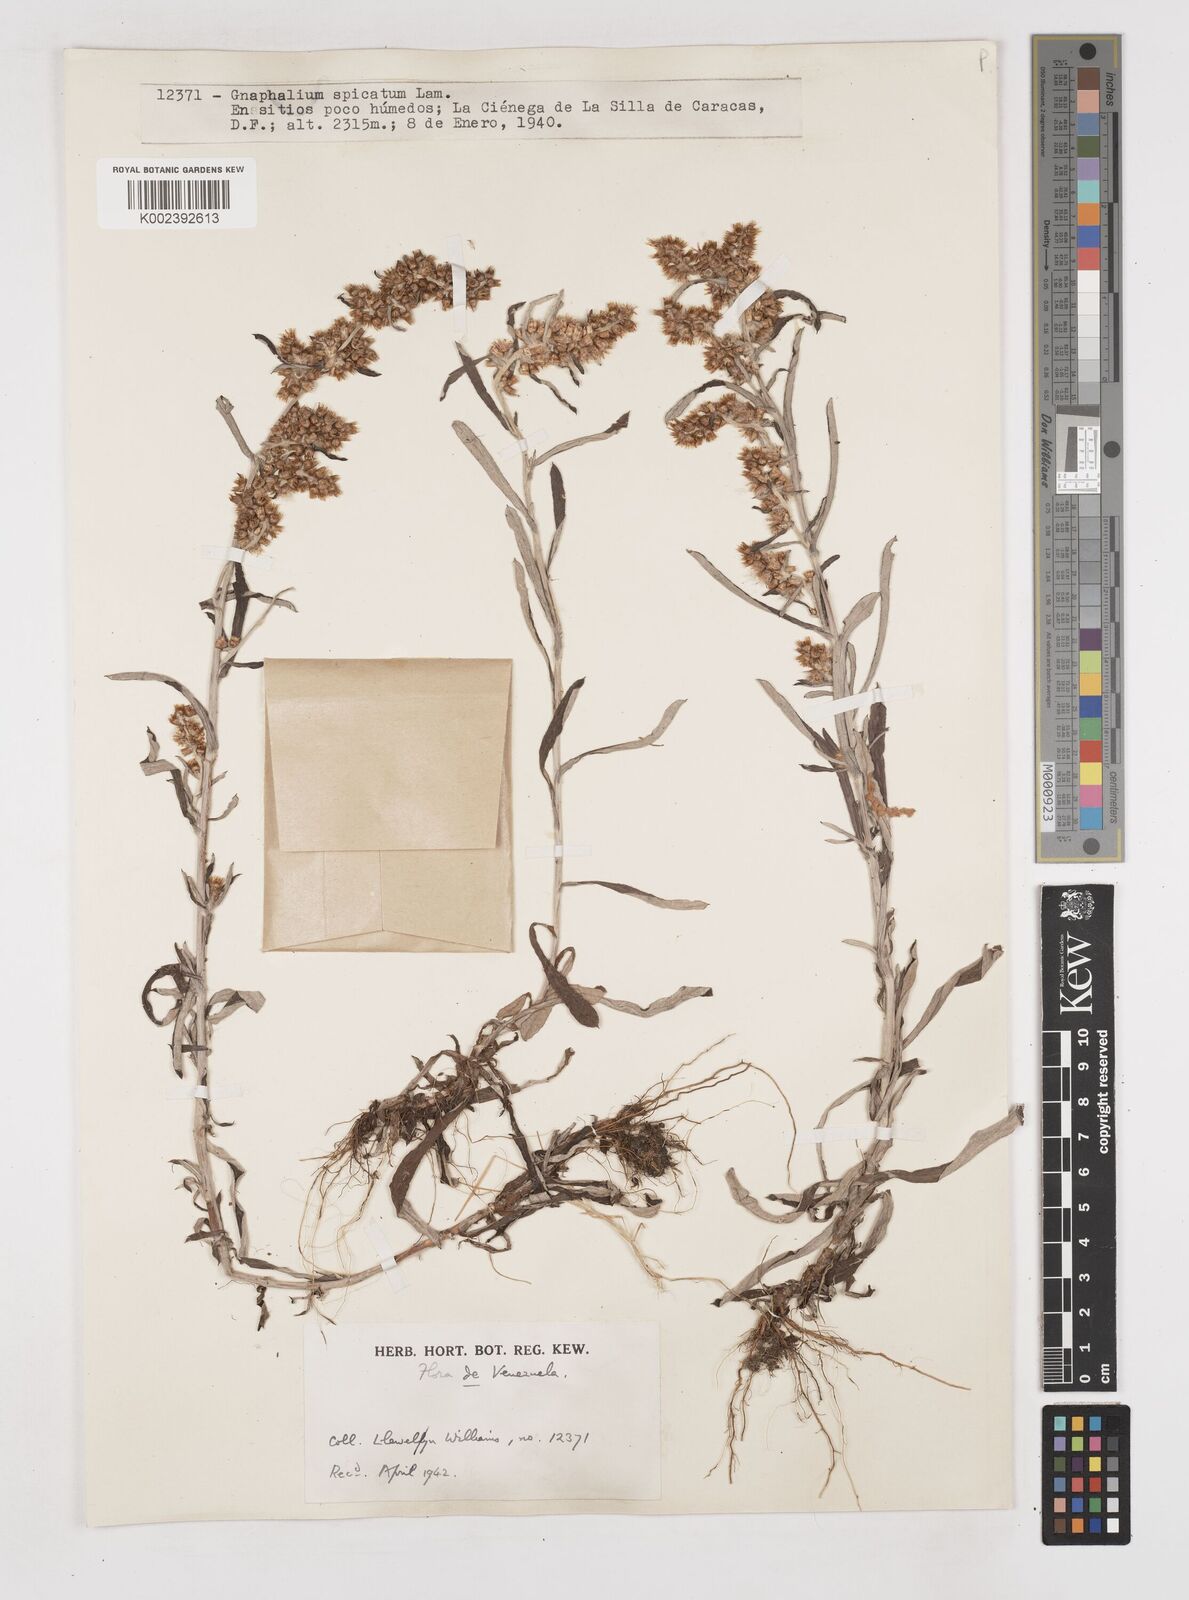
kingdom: Plantae
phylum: Tracheophyta
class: Magnoliopsida
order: Asterales
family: Asteraceae
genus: Gamochaeta
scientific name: Gamochaeta americana
